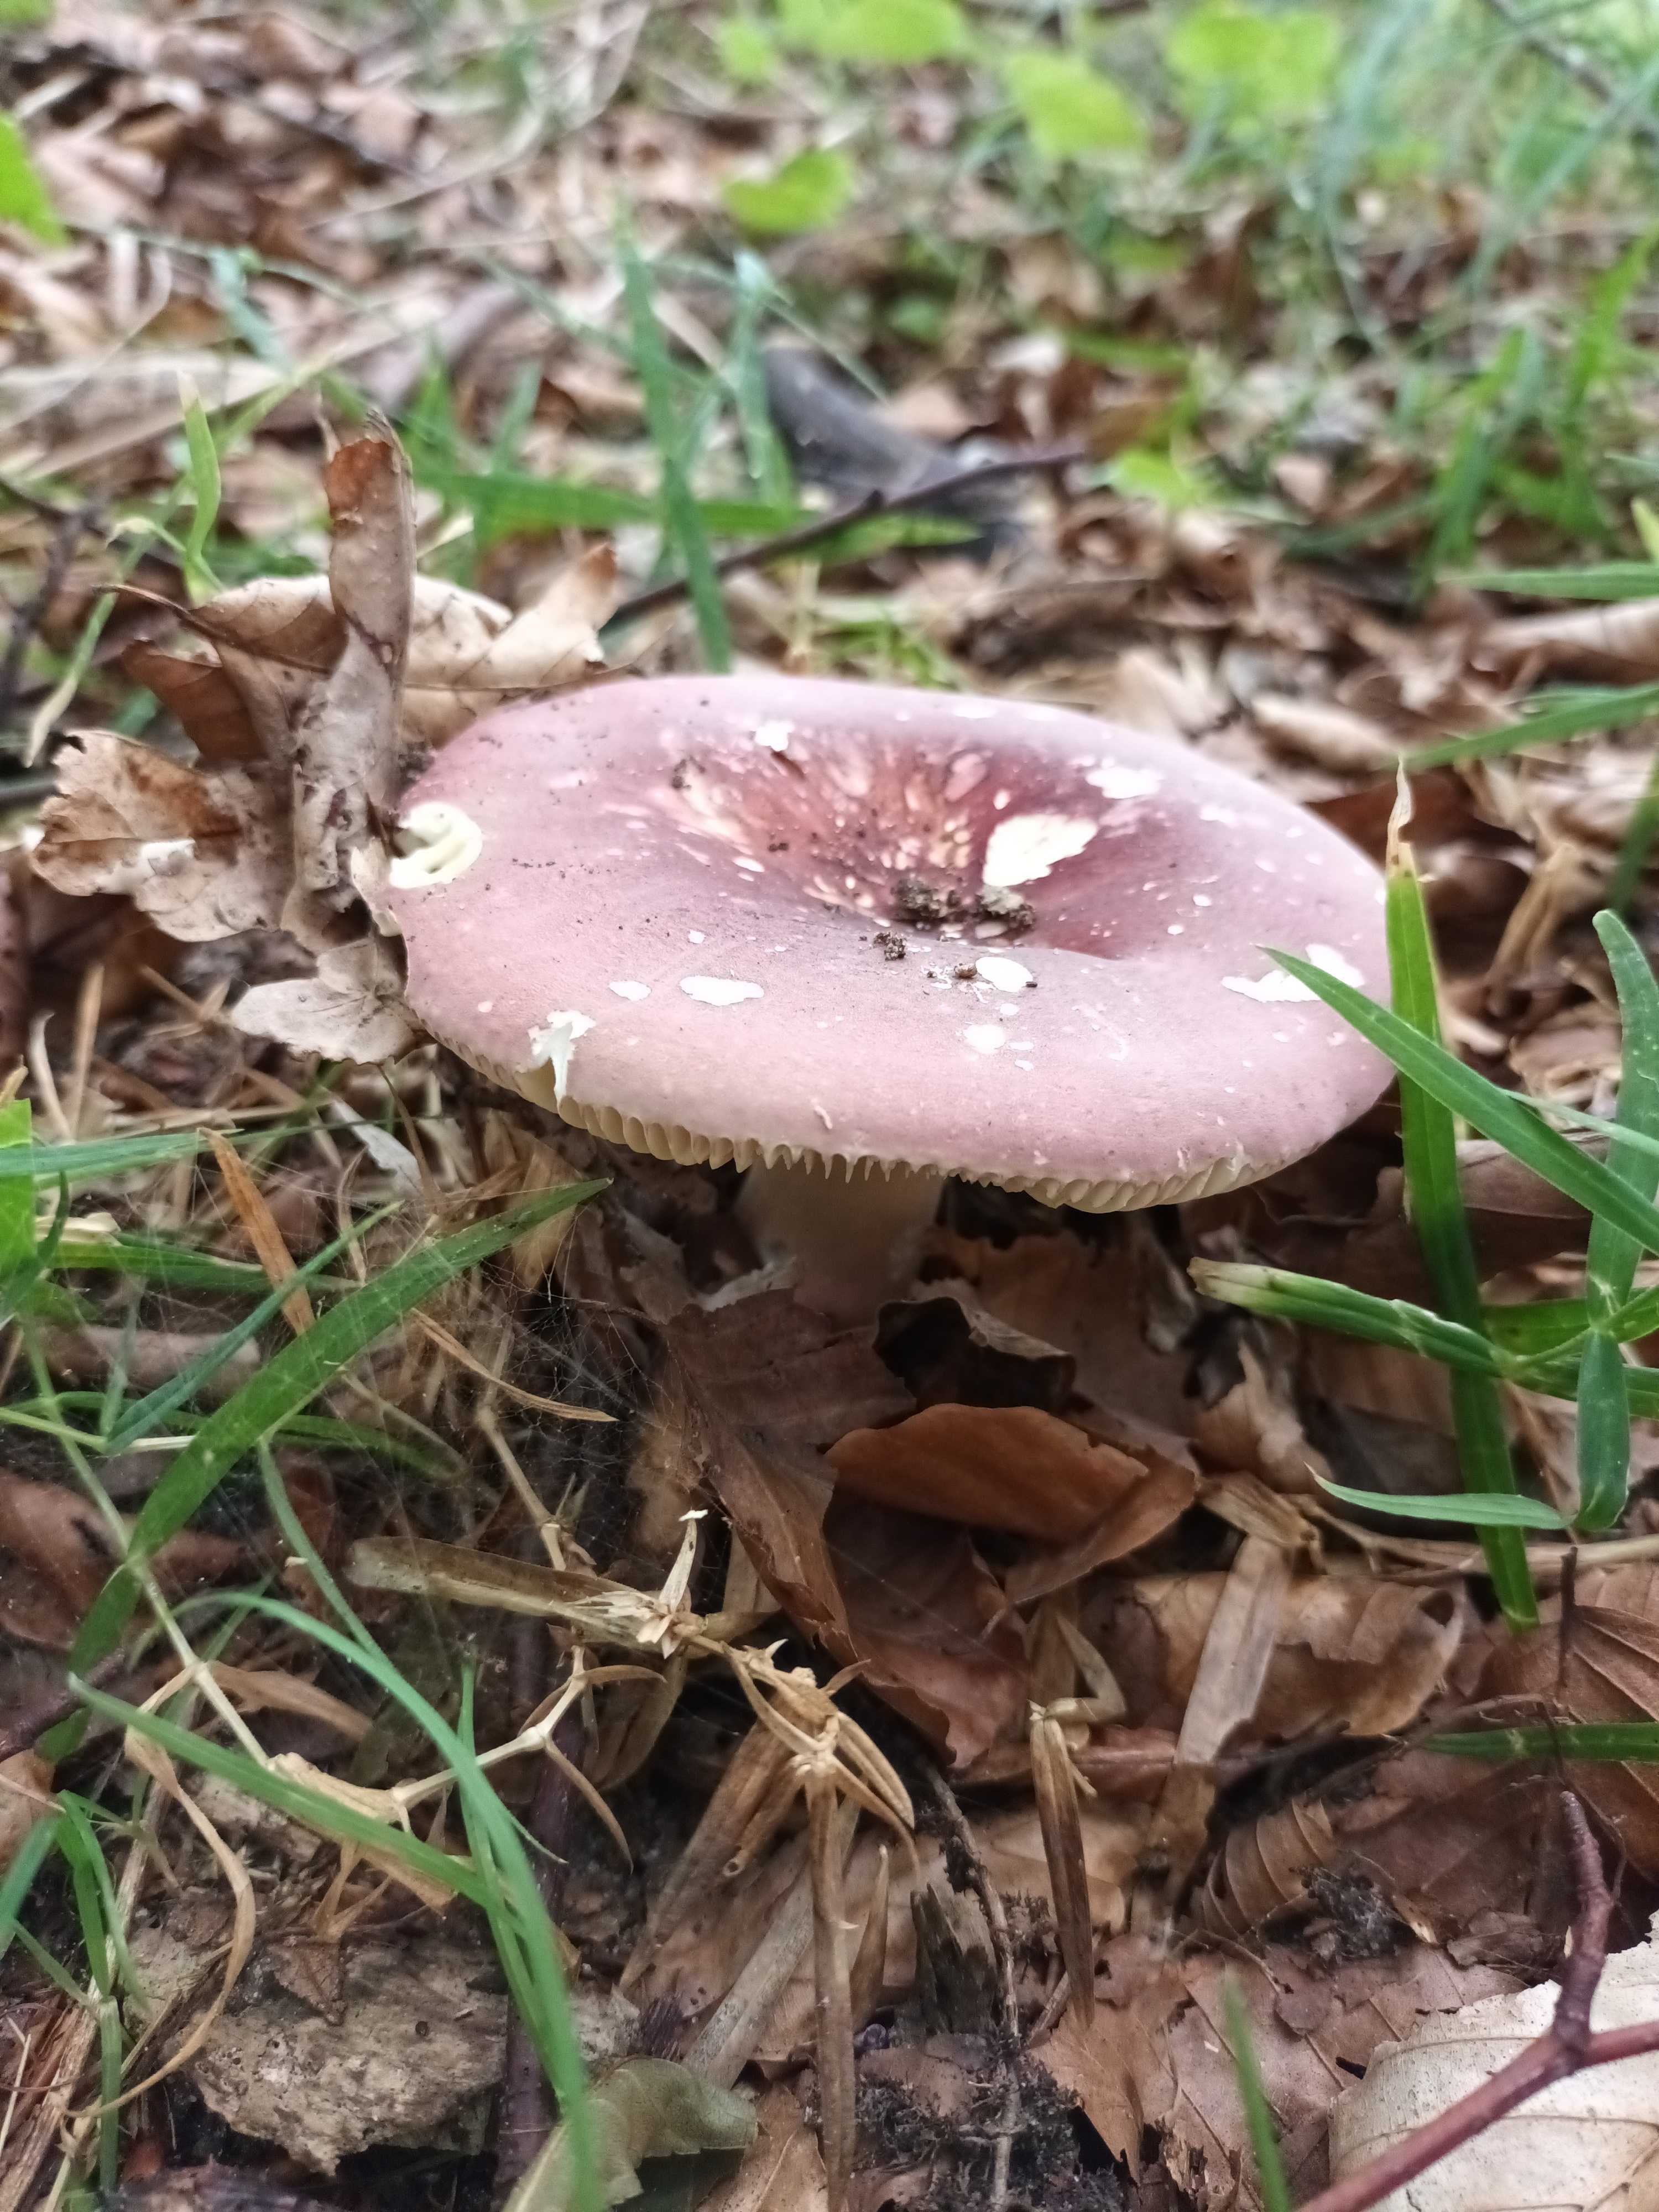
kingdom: Fungi
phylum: Basidiomycota
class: Agaricomycetes
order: Russulales
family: Russulaceae
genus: Russula
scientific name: Russula olivacea
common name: stor skørhat
